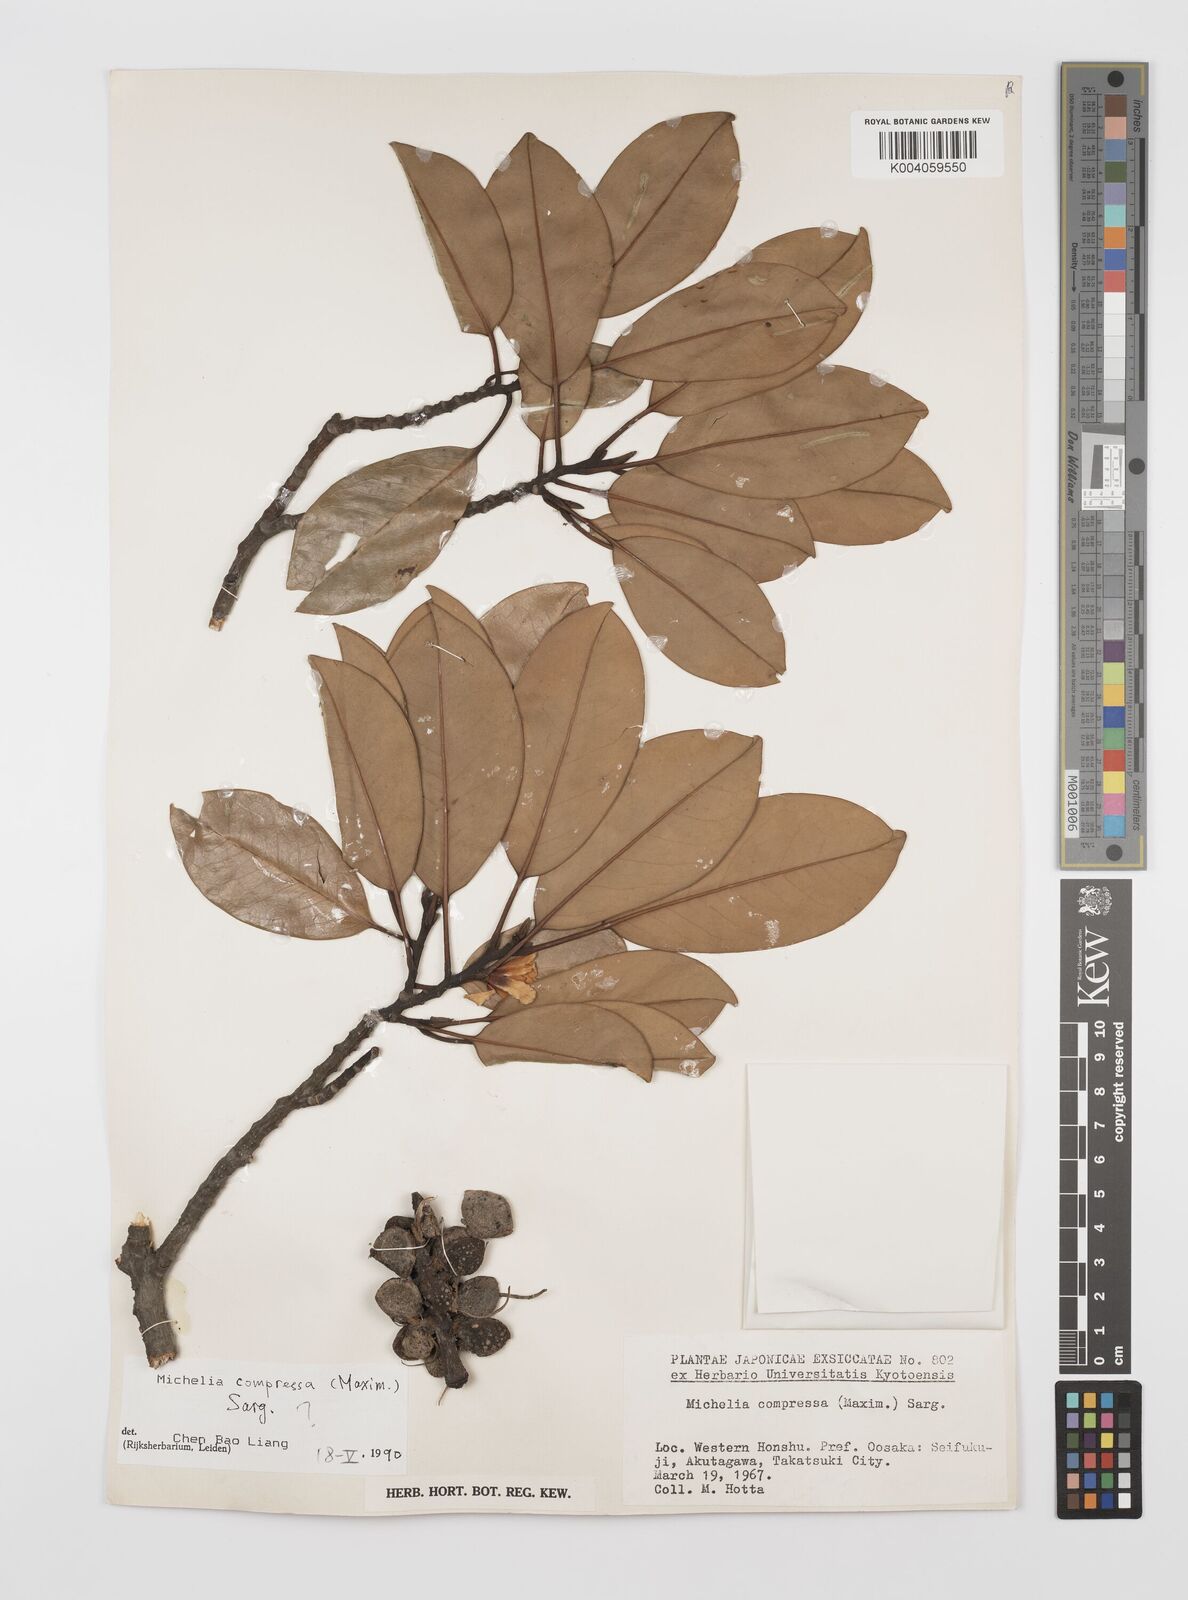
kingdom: Plantae
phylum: Tracheophyta
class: Magnoliopsida
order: Magnoliales
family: Magnoliaceae
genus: Magnolia
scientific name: Magnolia compressa
